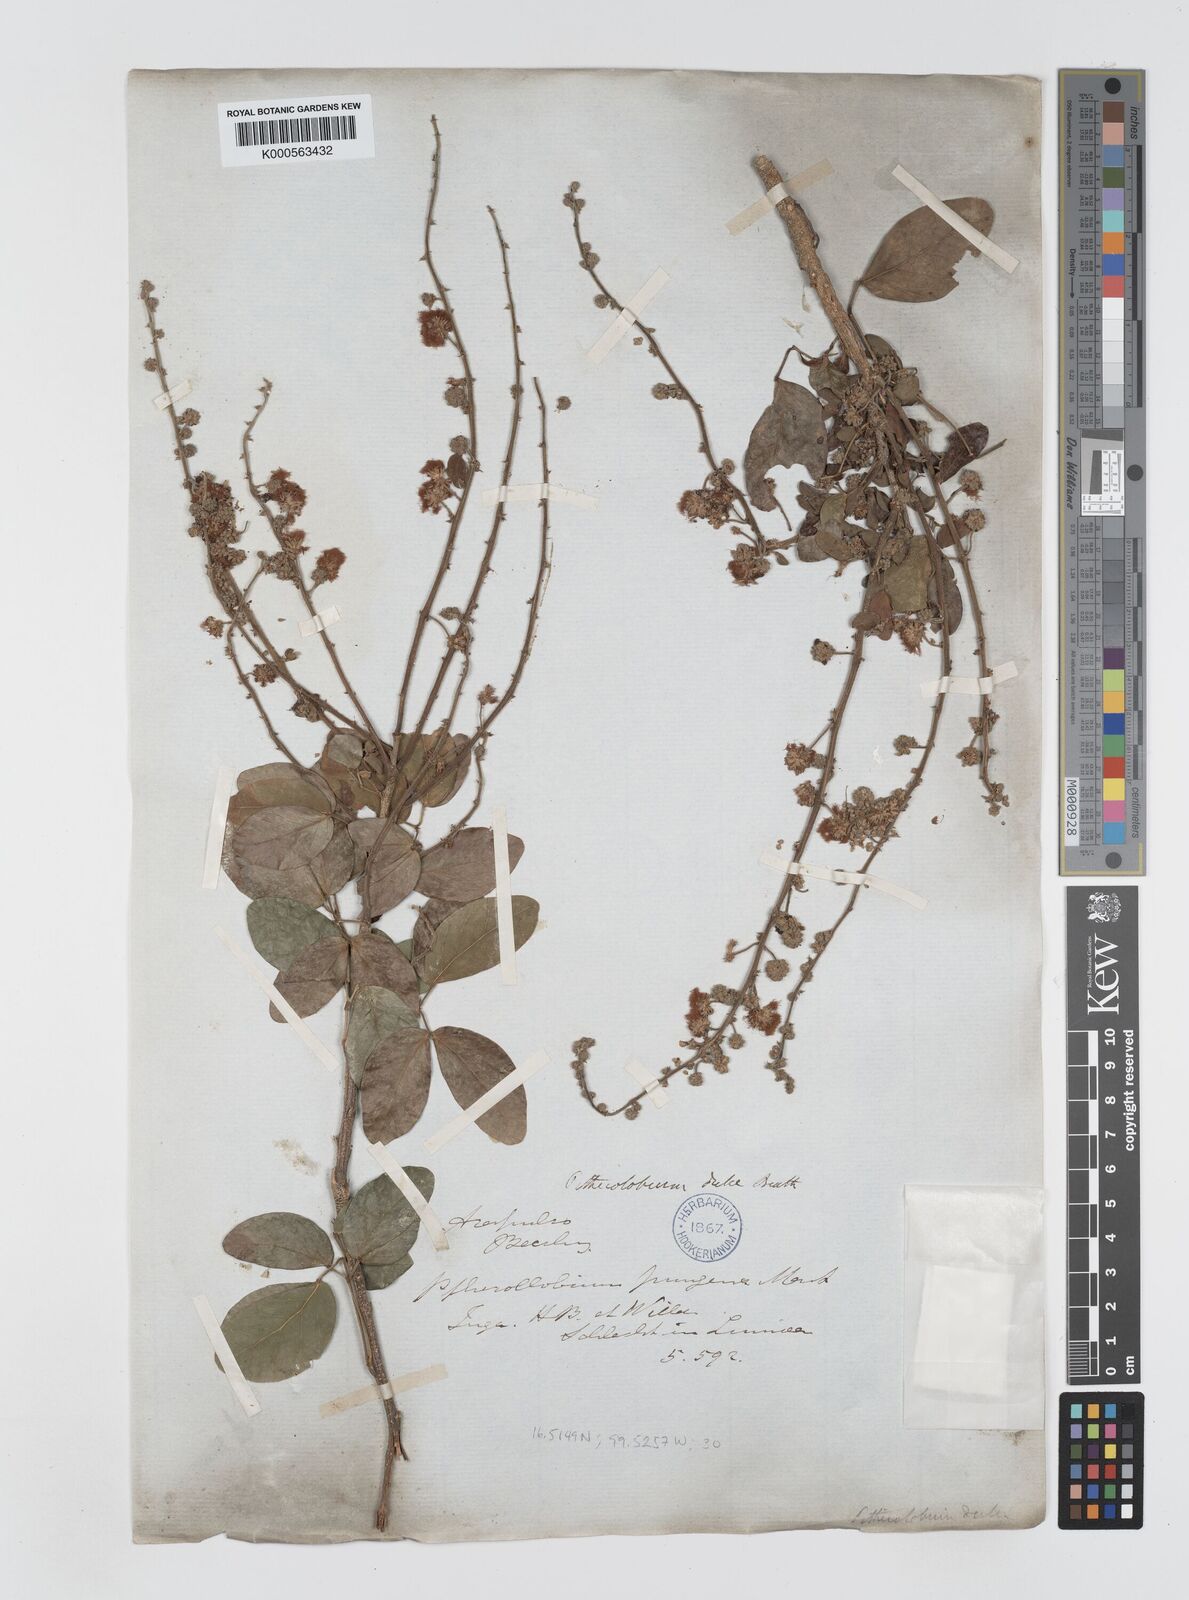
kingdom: Plantae
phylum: Tracheophyta
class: Magnoliopsida
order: Fabales
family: Fabaceae
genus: Pithecellobium
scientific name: Pithecellobium dulce
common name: Monkeypod
